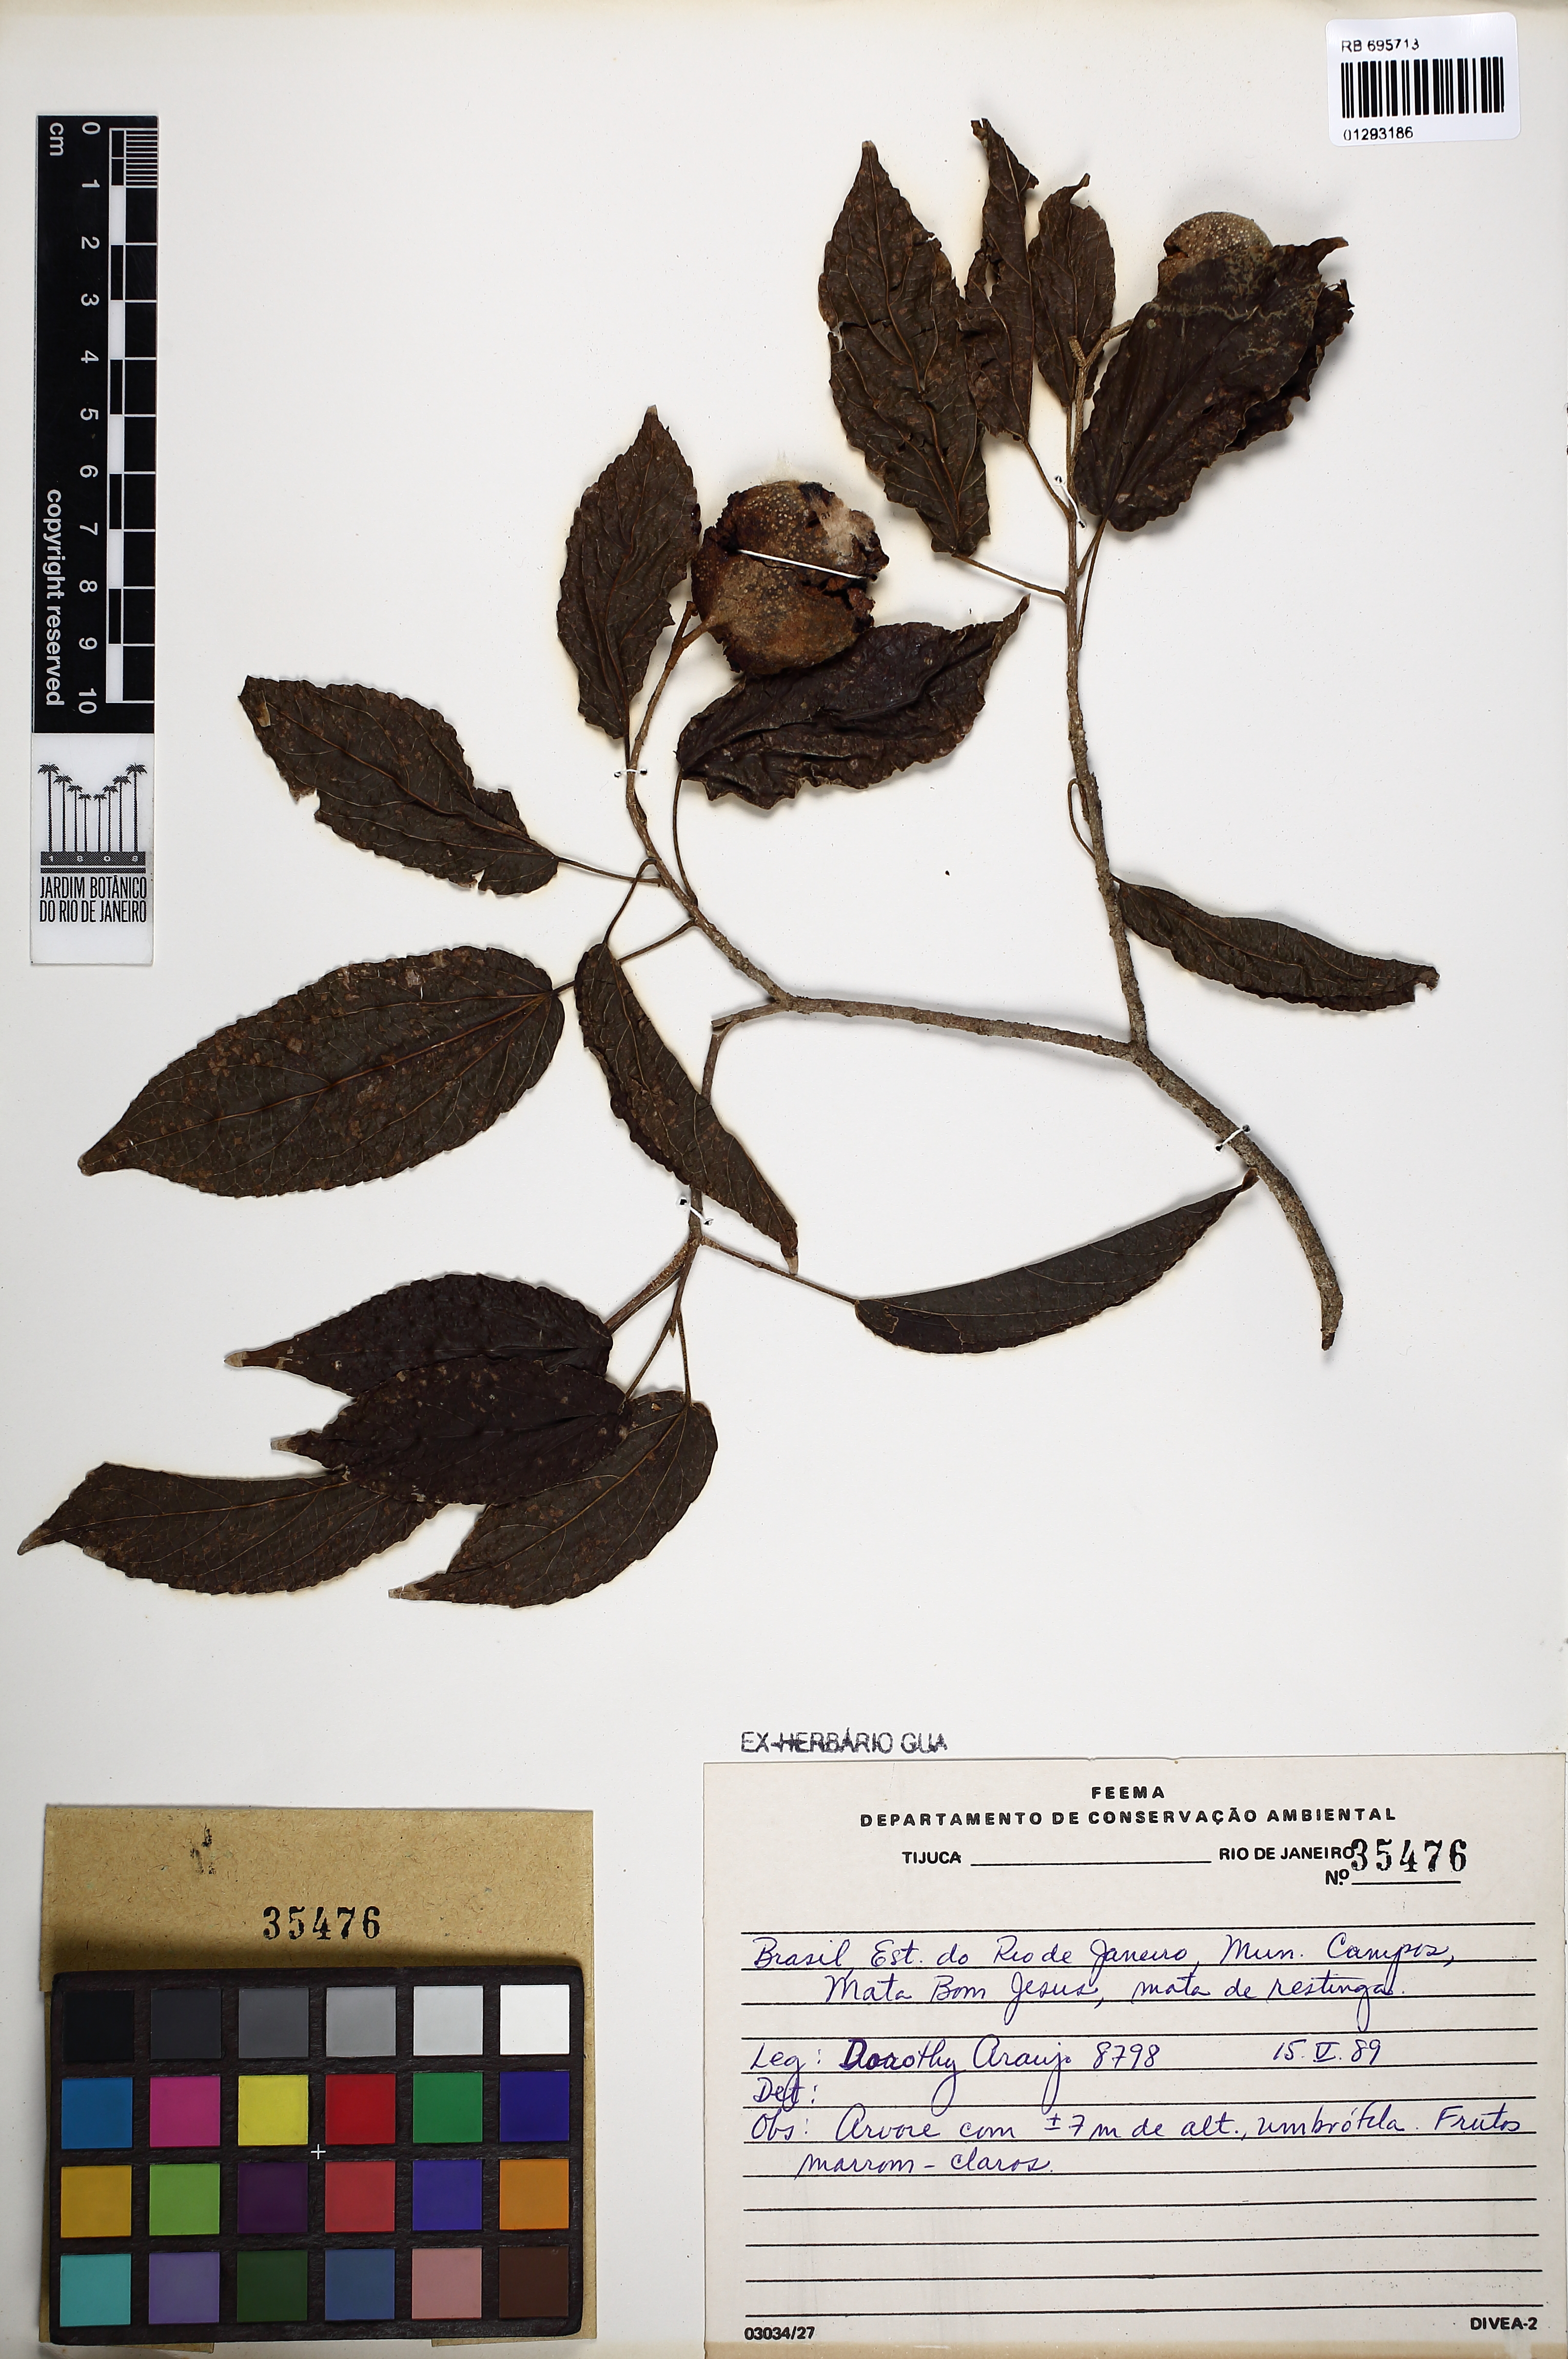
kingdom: Plantae
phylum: Tracheophyta
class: Magnoliopsida
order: Rosales
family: Rhamnaceae
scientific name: Rhamnaceae
